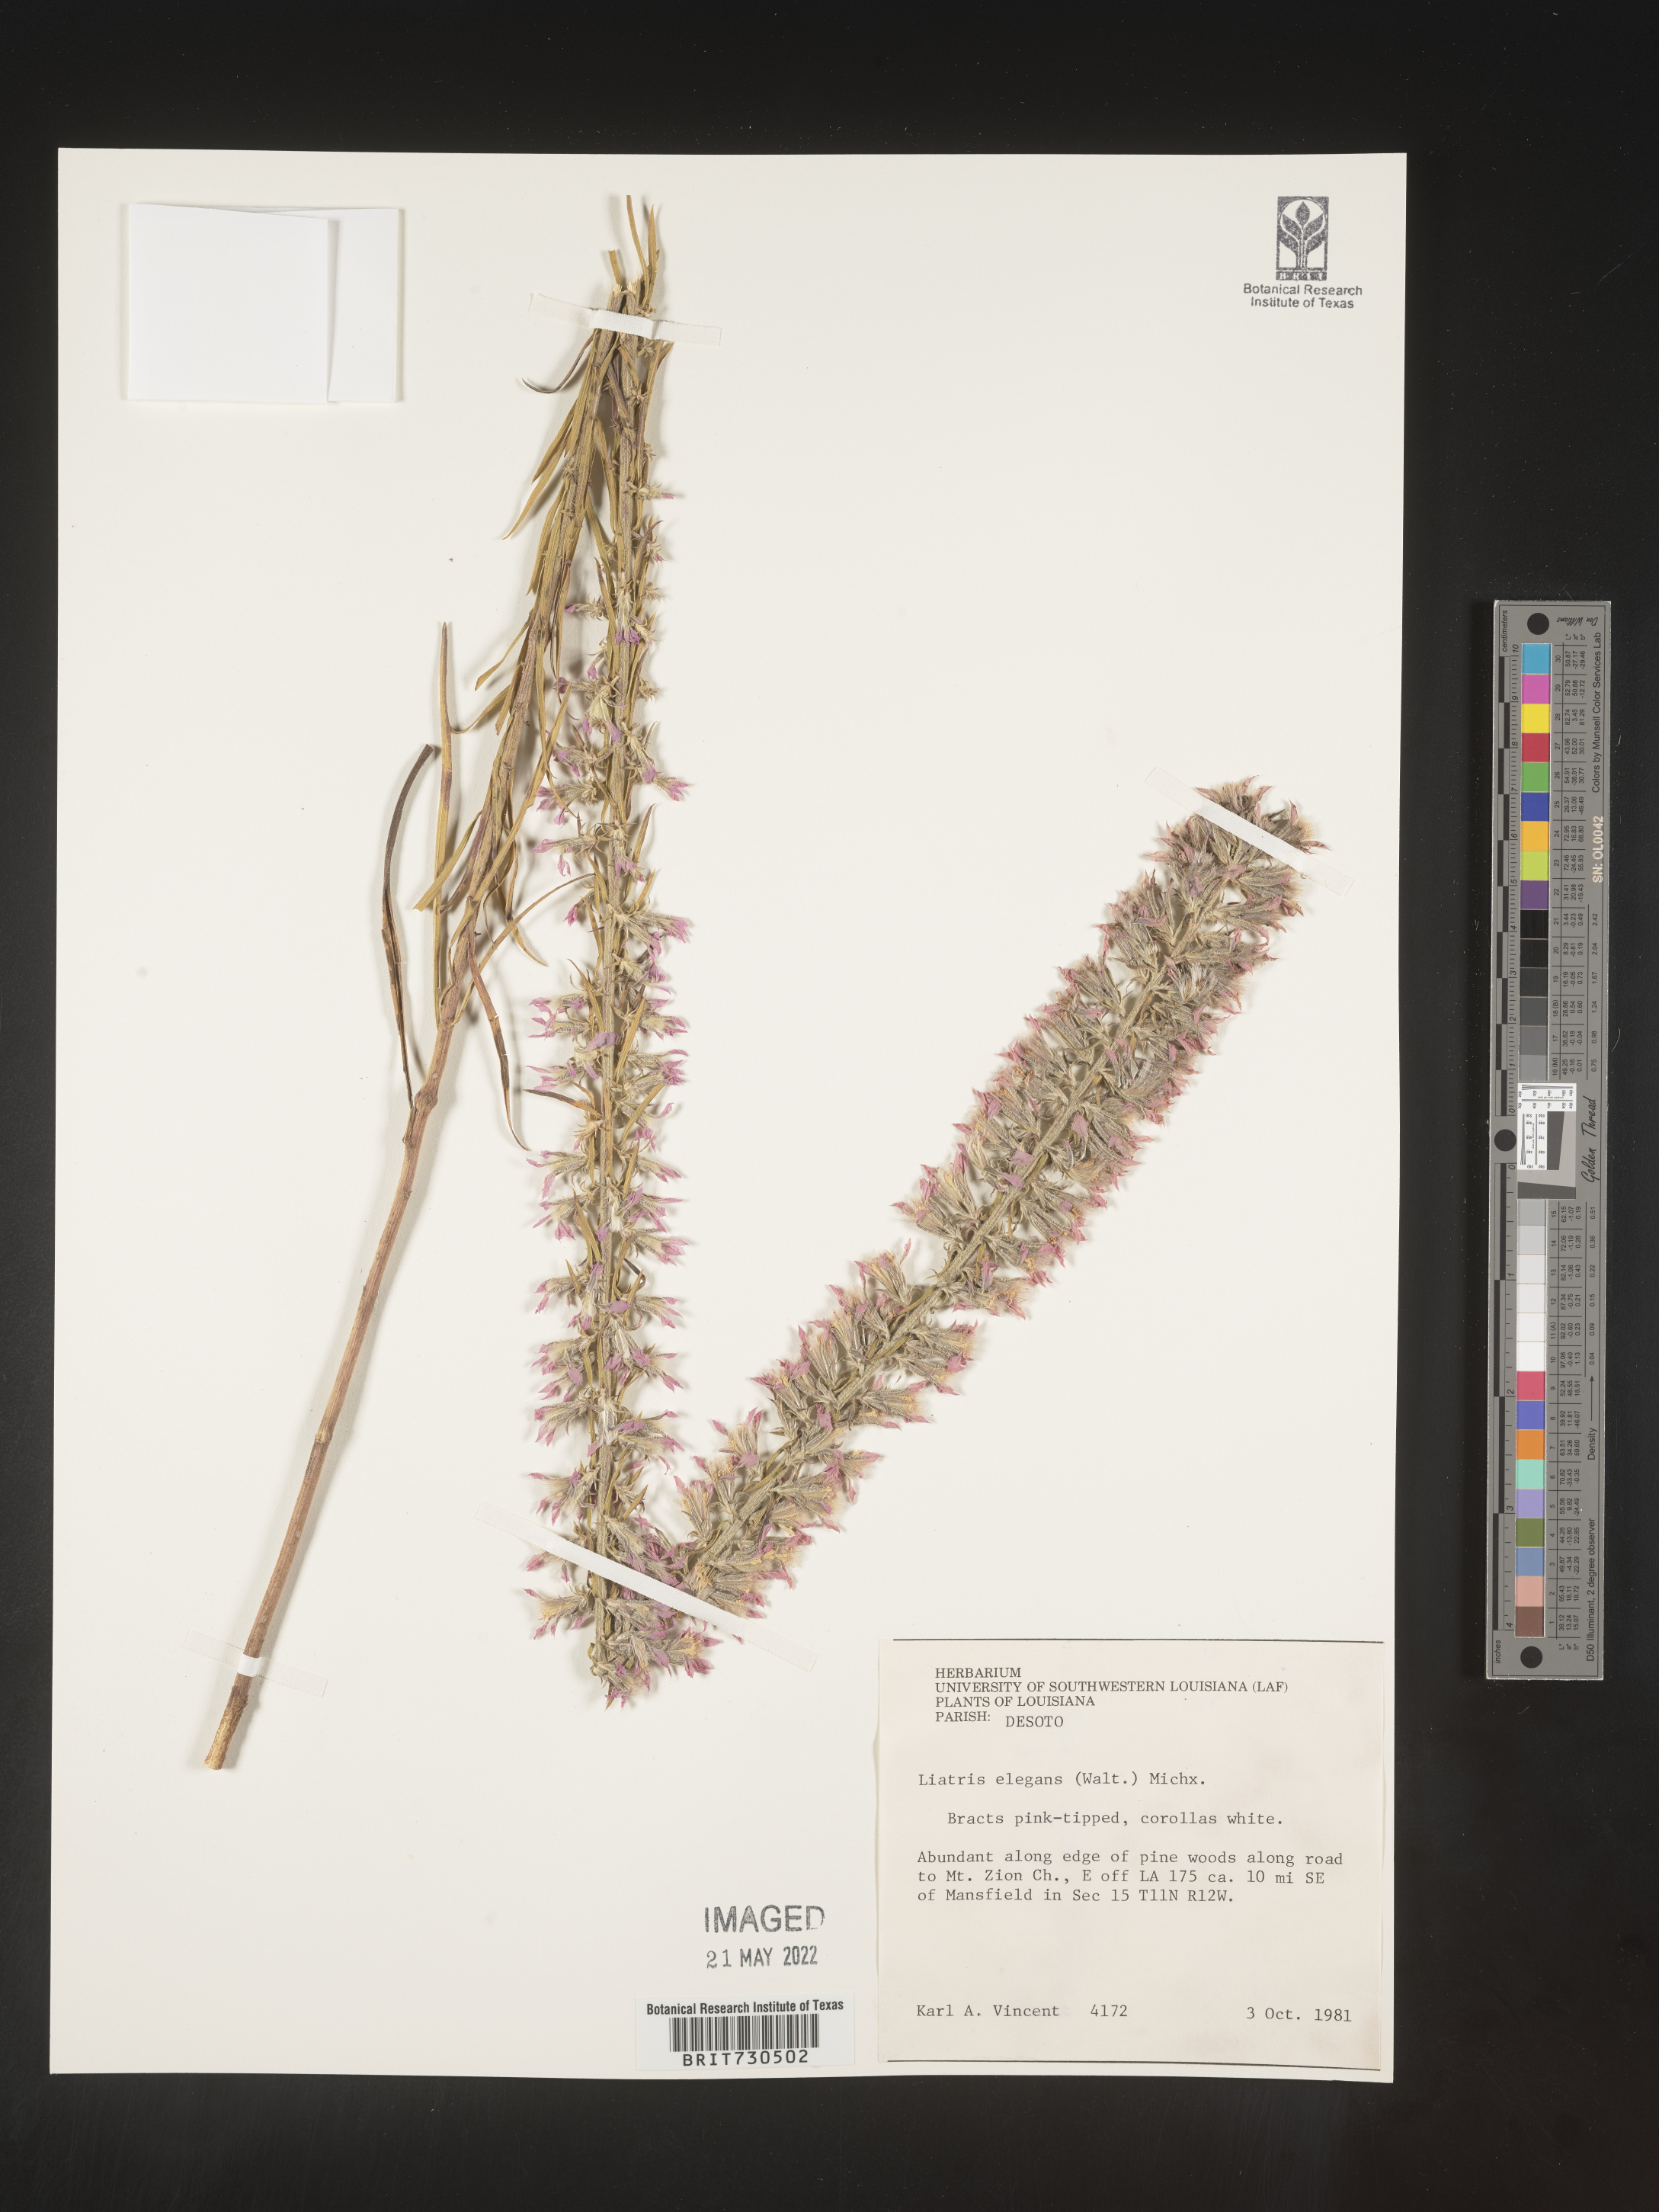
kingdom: Plantae
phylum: Tracheophyta
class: Magnoliopsida
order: Asterales
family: Asteraceae
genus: Liatris
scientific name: Liatris elegans
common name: Pinkscale gayfeather
